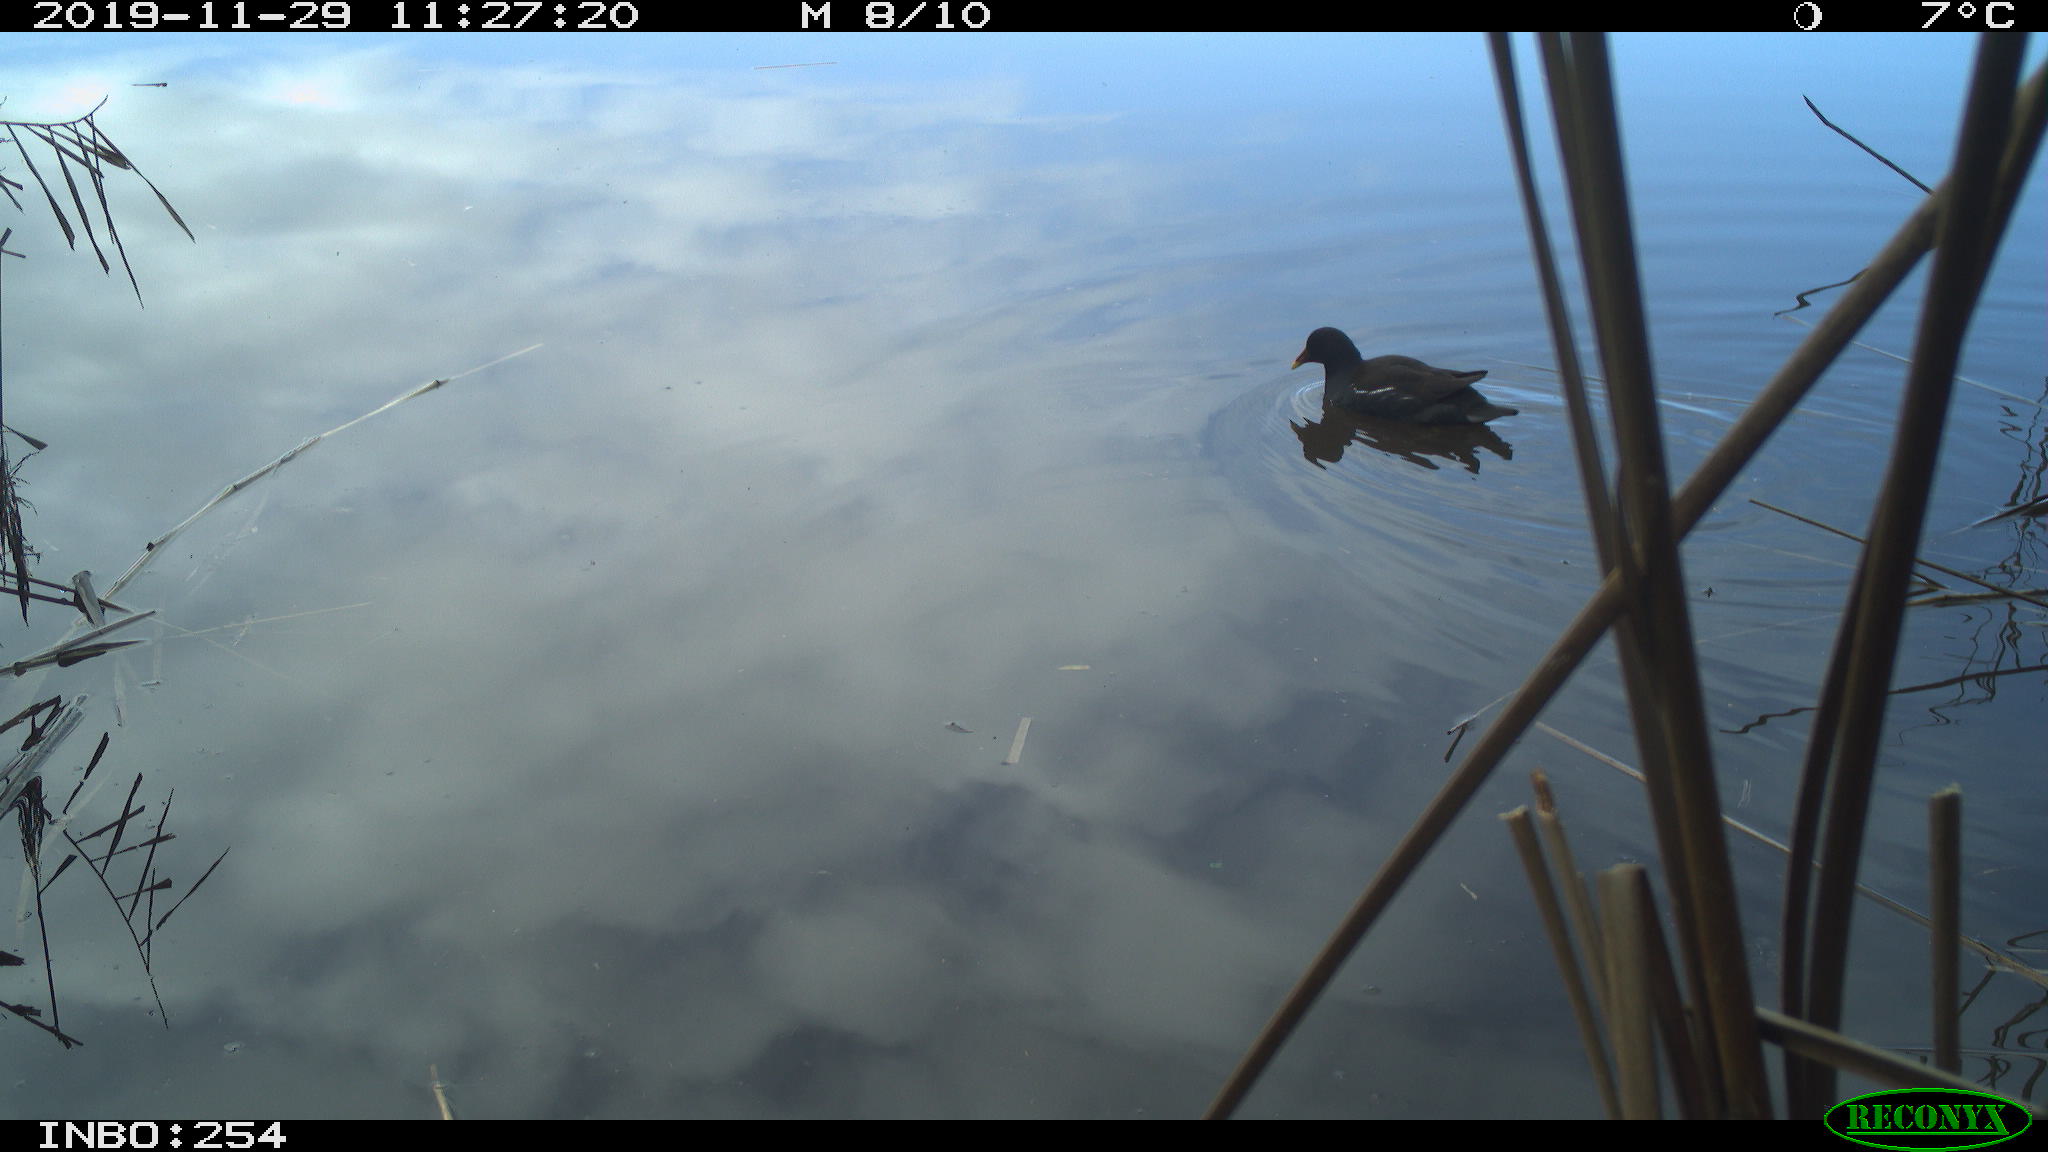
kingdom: Animalia
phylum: Chordata
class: Aves
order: Gruiformes
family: Rallidae
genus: Gallinula
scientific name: Gallinula chloropus
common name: Common moorhen
